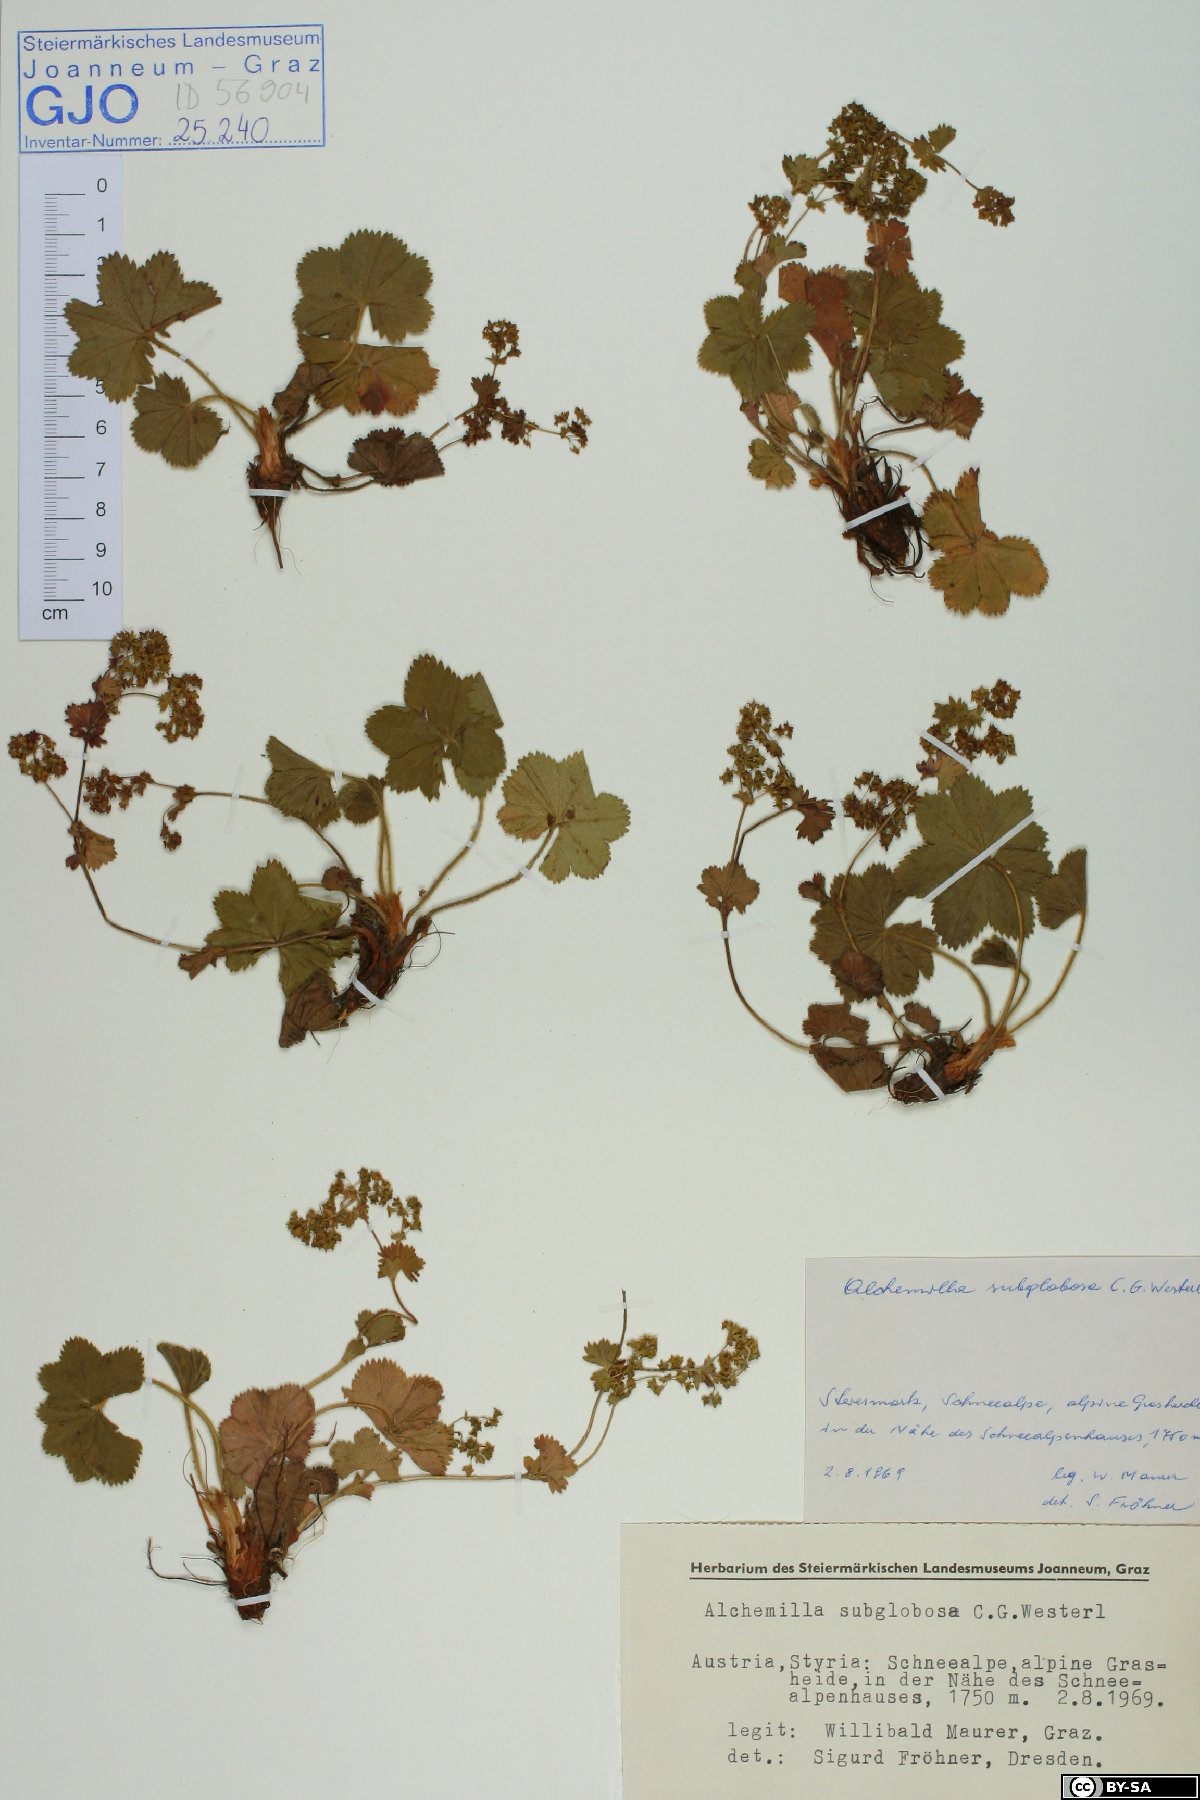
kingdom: Plantae
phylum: Tracheophyta
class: Magnoliopsida
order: Rosales
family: Rosaceae
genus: Alchemilla
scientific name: Alchemilla subglobosa
